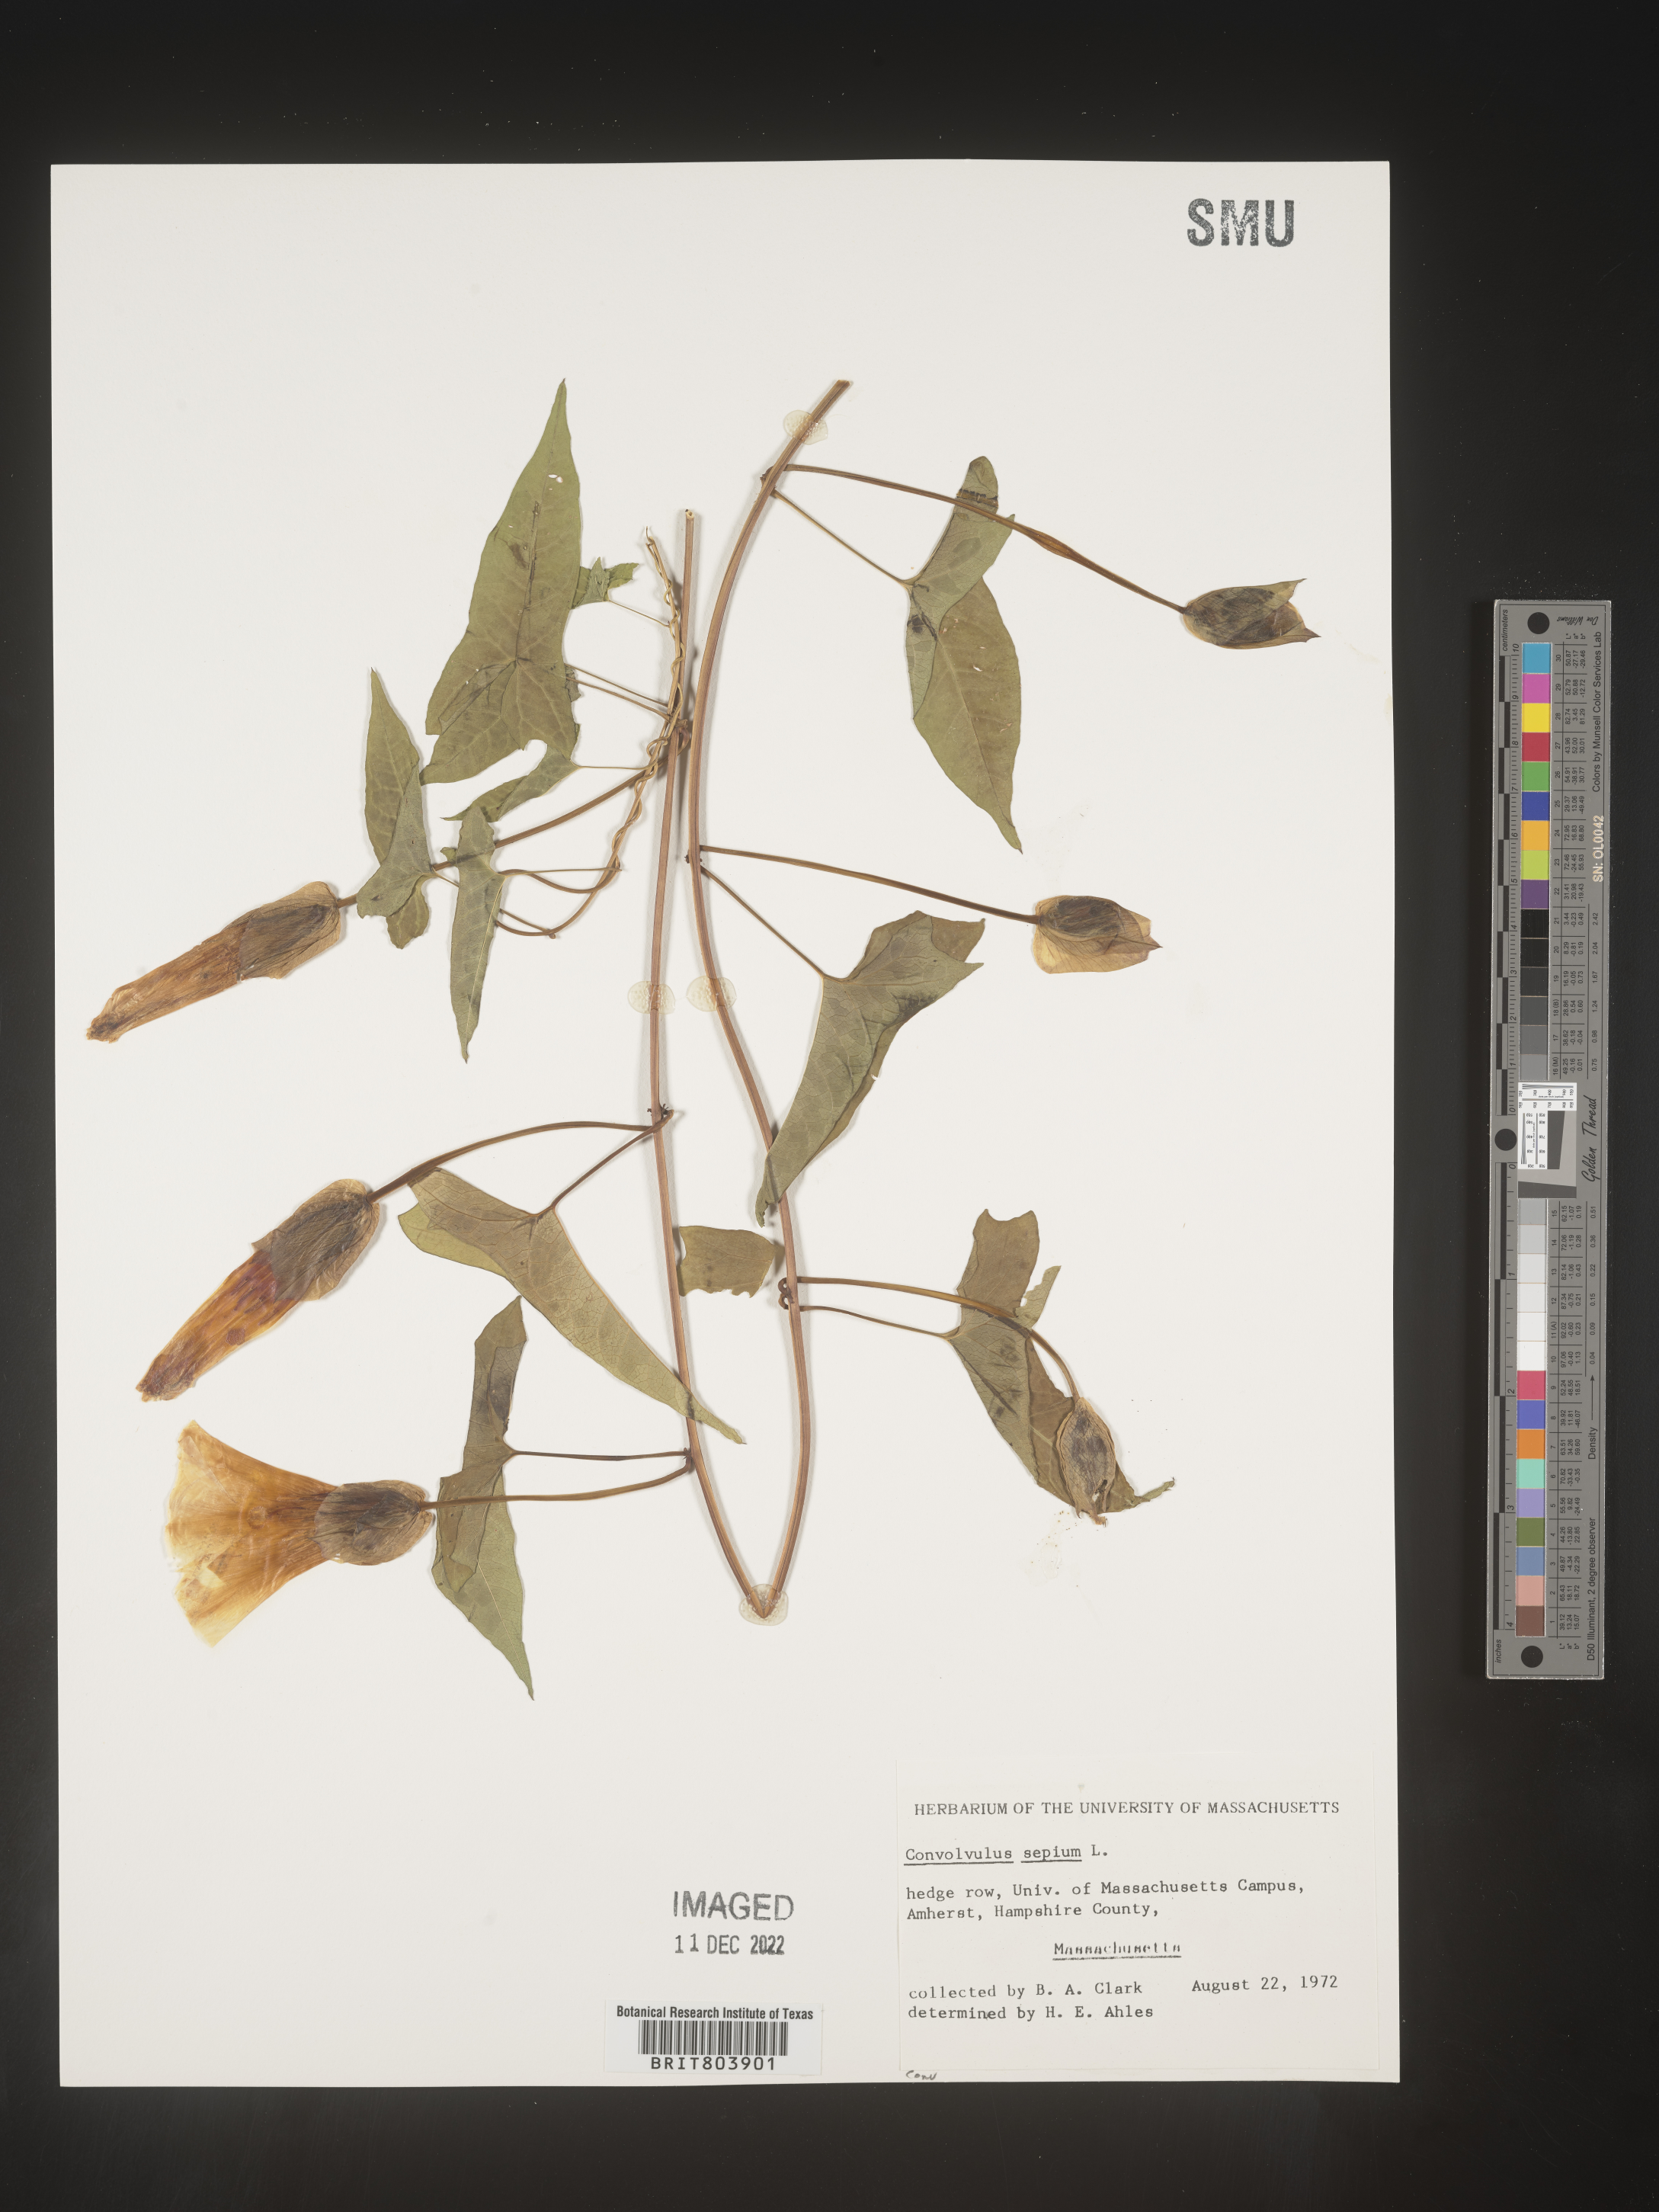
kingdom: Plantae
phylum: Tracheophyta
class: Magnoliopsida
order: Solanales
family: Convolvulaceae
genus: Calystegia
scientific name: Calystegia sepium
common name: Hedge bindweed
